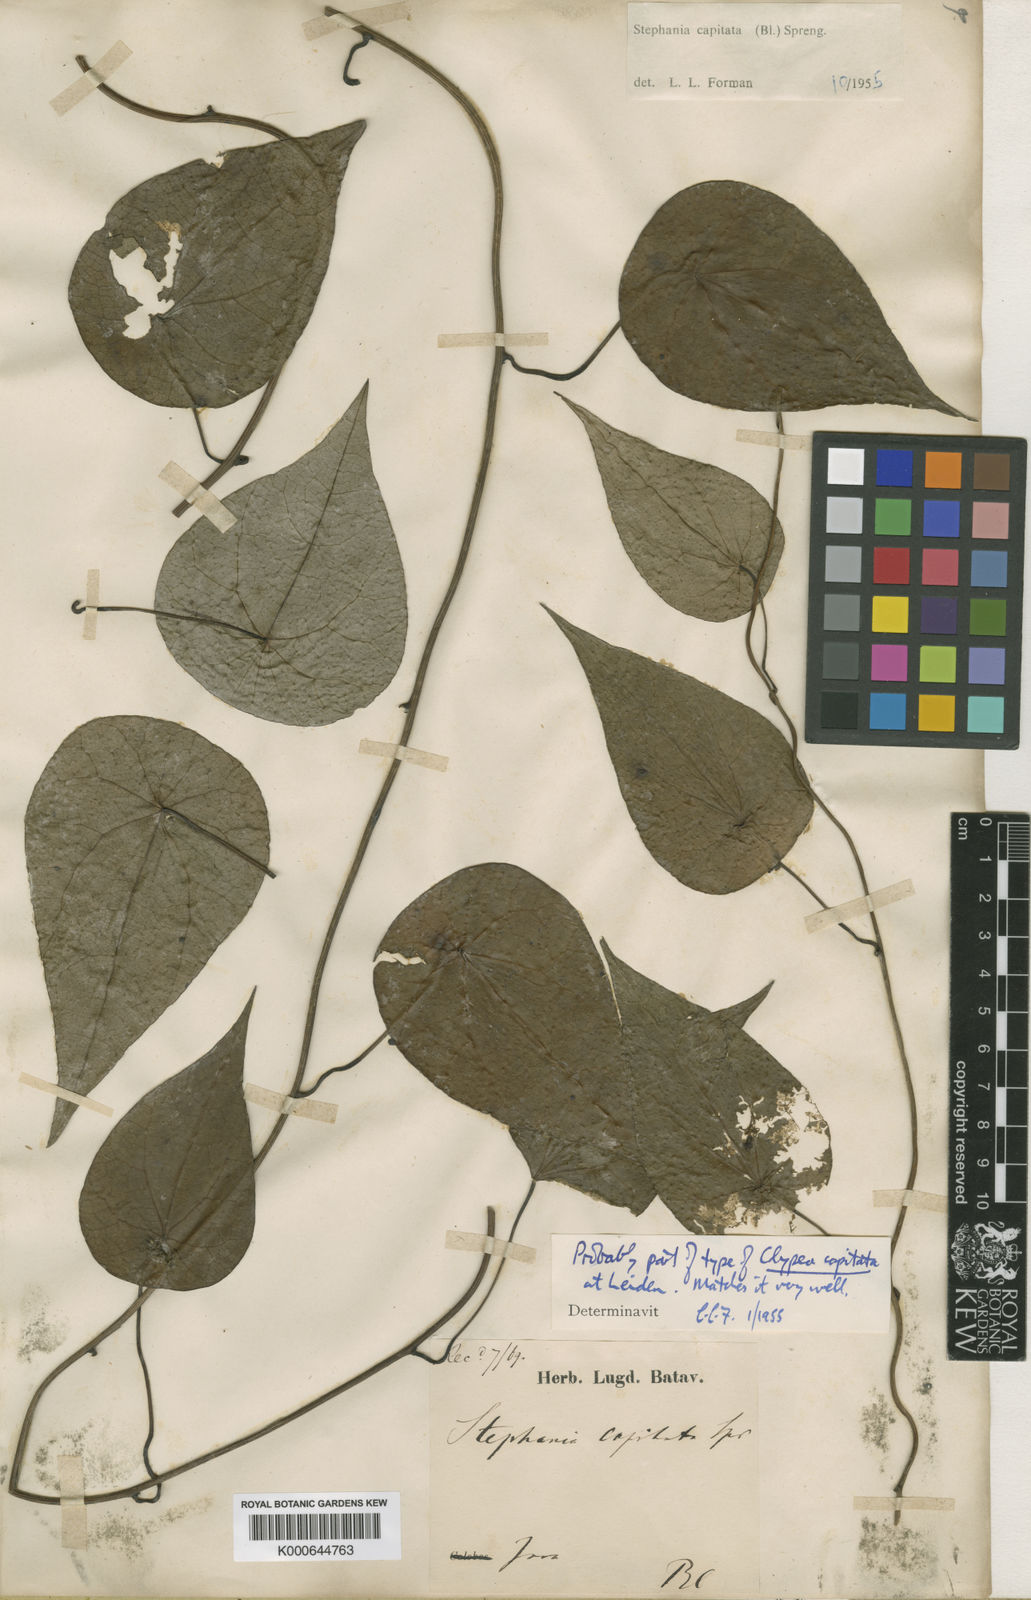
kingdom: Plantae
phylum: Tracheophyta
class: Magnoliopsida
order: Ranunculales
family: Menispermaceae
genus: Stephania
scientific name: Stephania capitata
